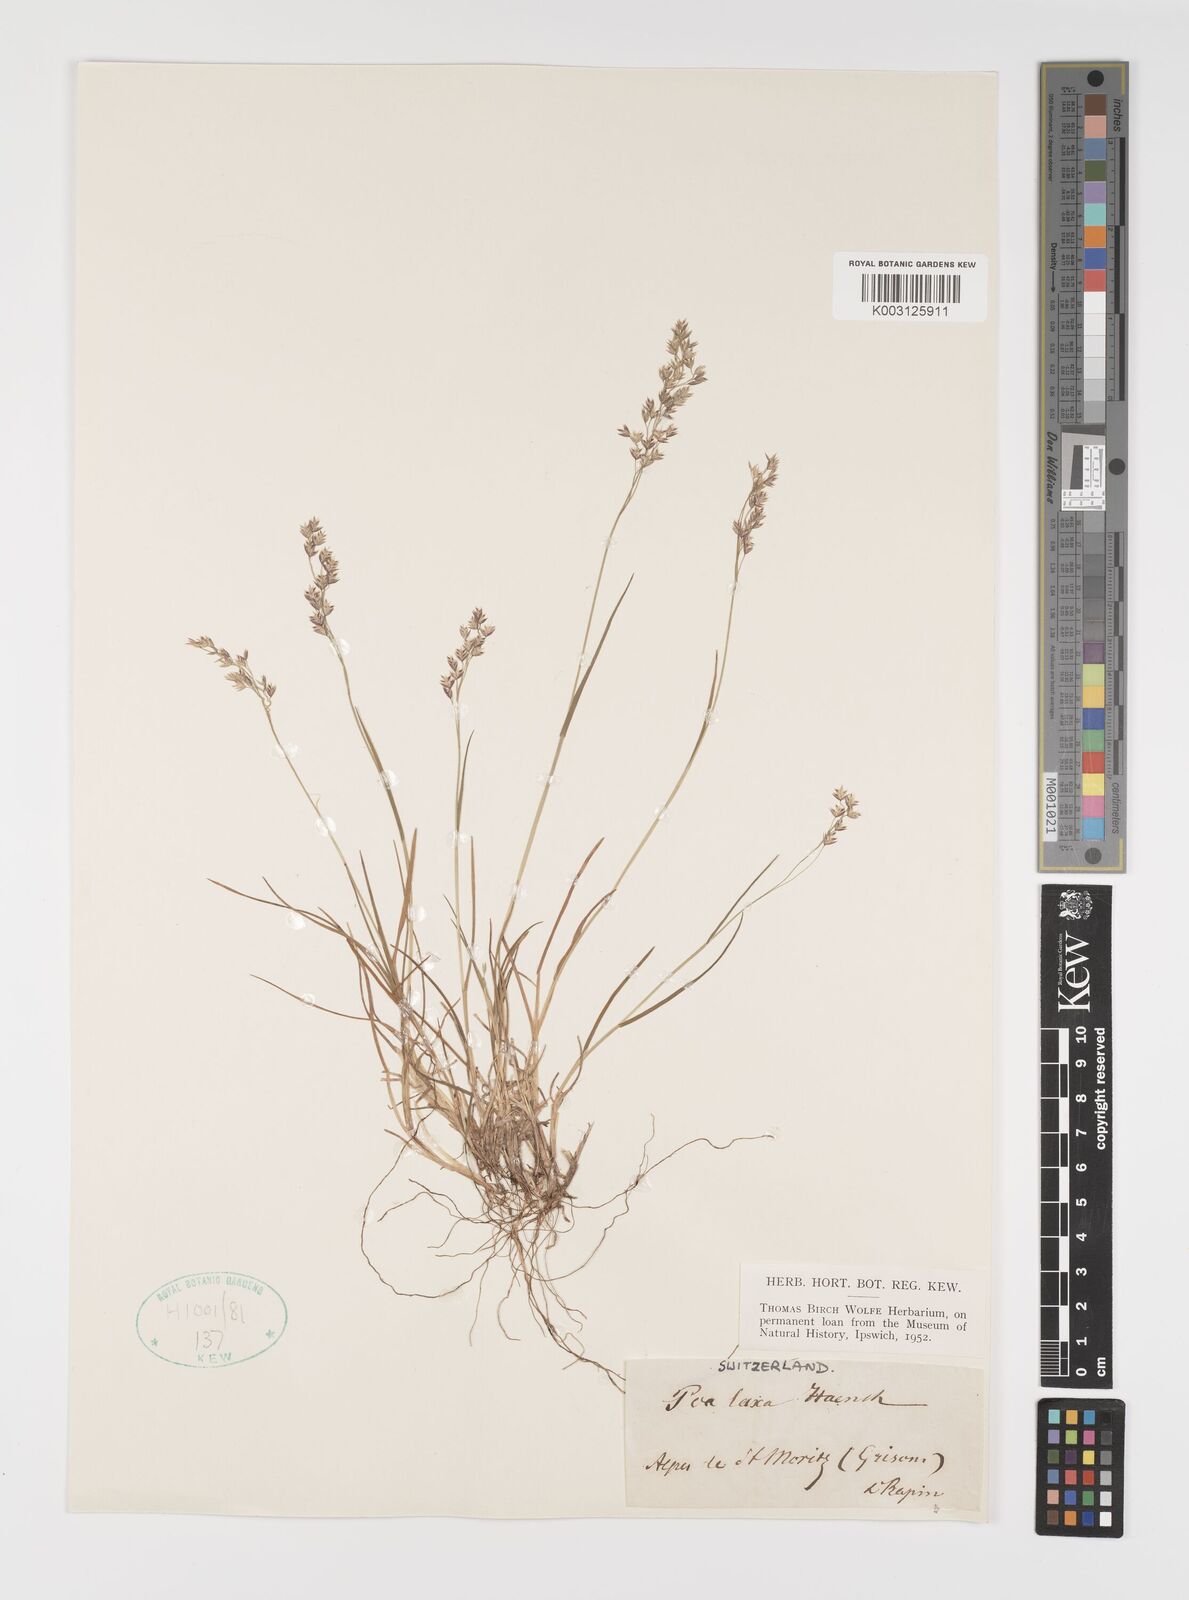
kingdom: Plantae
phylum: Tracheophyta
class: Liliopsida
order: Poales
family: Poaceae
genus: Poa
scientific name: Poa laxa
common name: Lax bluegrass
